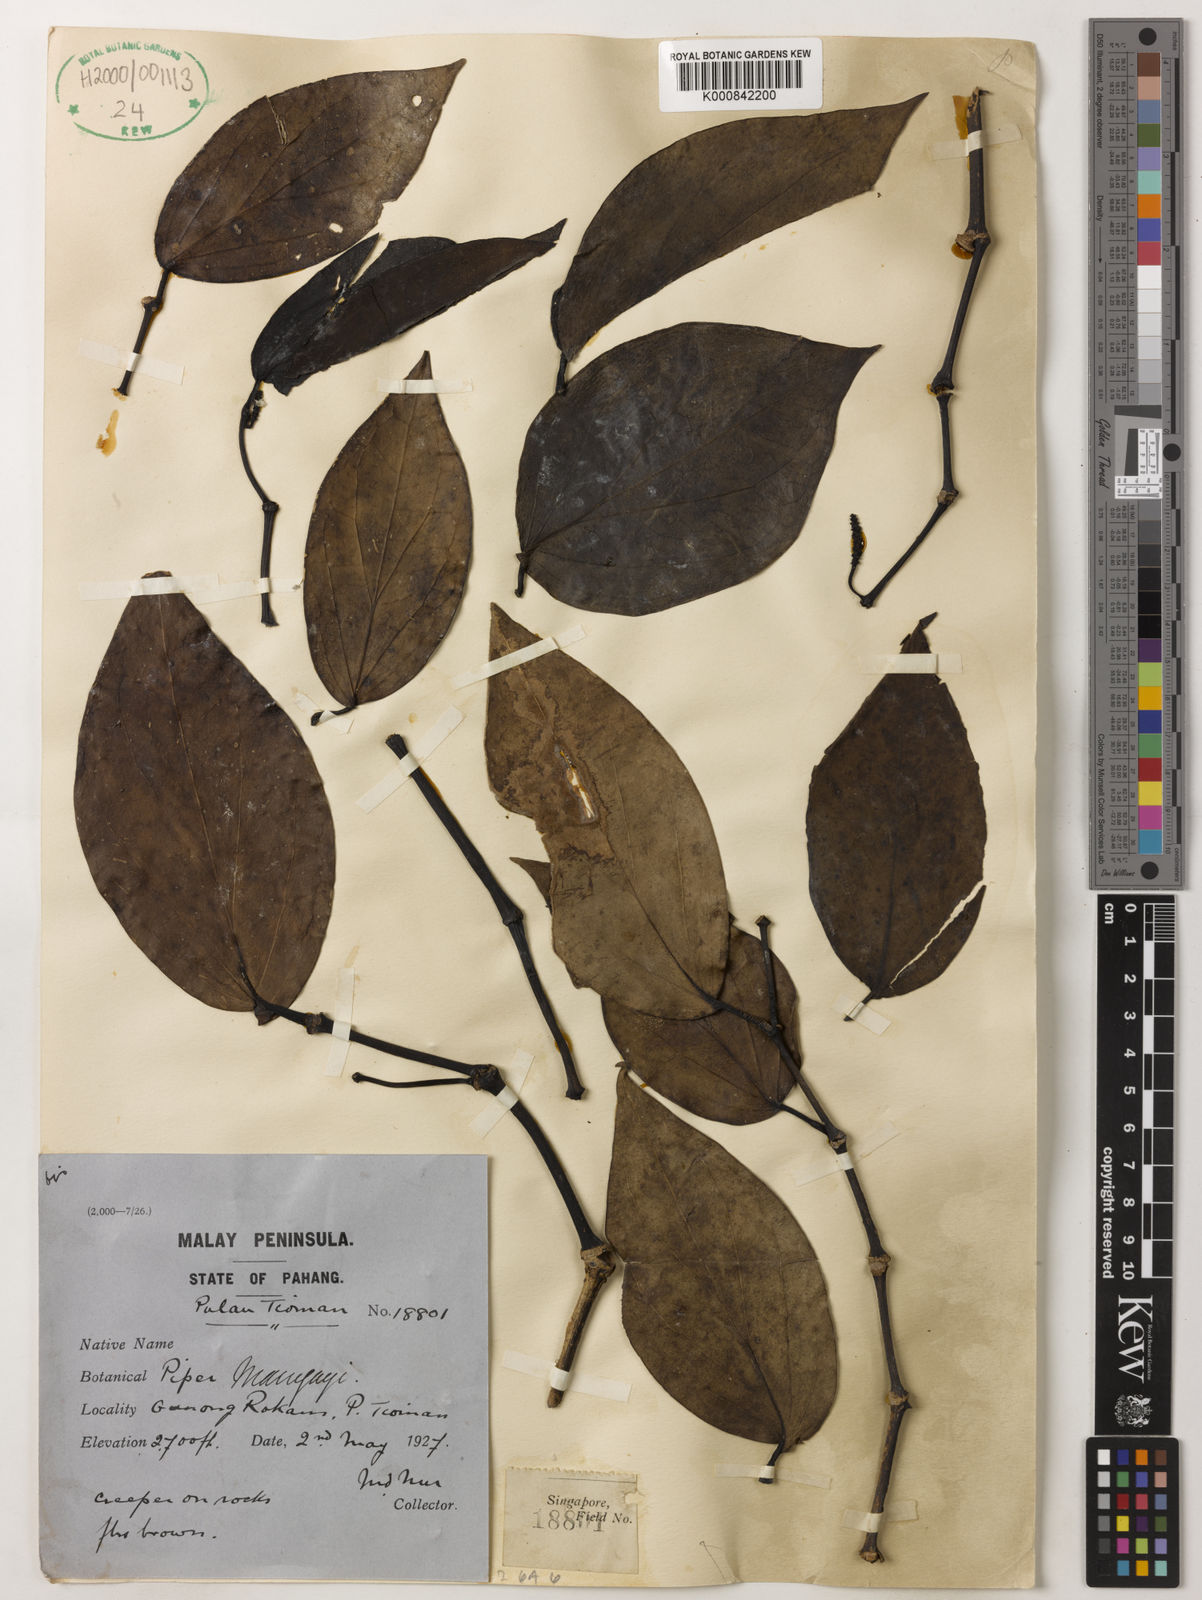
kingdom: Plantae
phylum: Tracheophyta
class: Magnoliopsida
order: Piperales
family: Piperaceae
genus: Piper
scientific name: Piper maingayi
